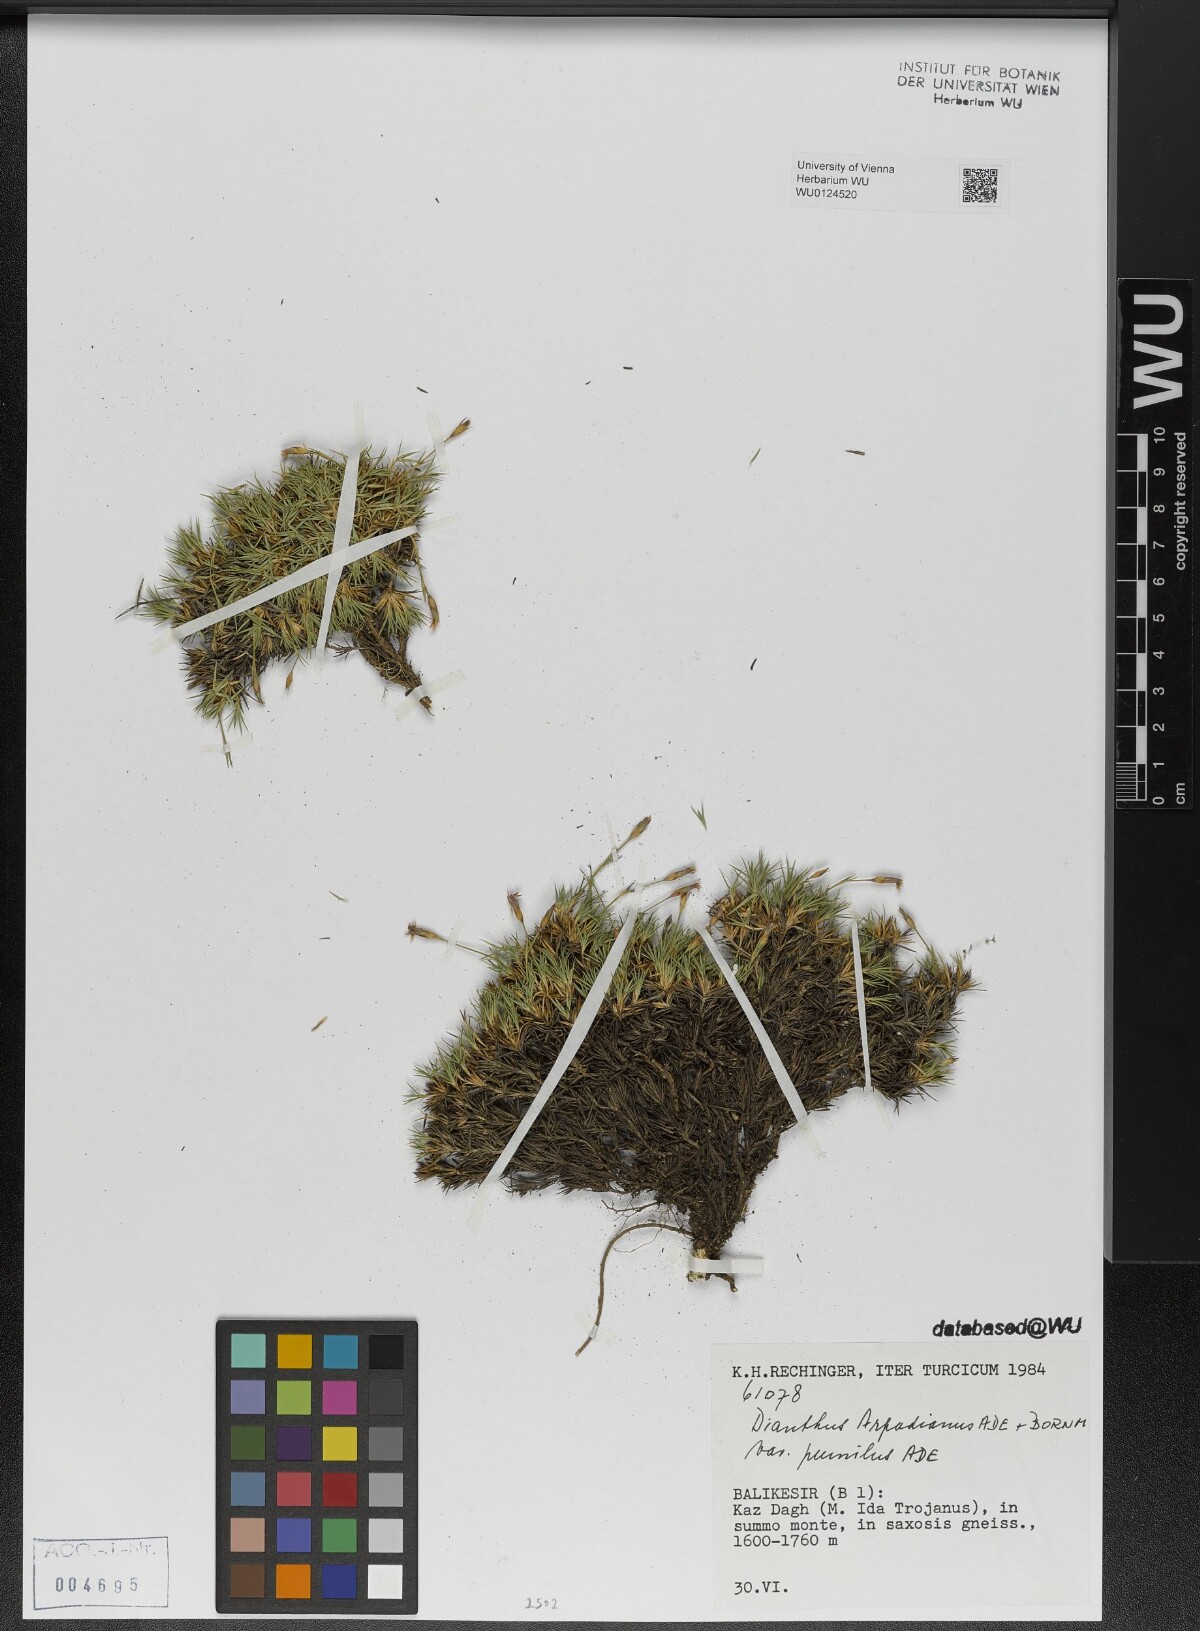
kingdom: Plantae
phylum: Tracheophyta
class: Magnoliopsida
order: Caryophyllales
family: Caryophyllaceae
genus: Dianthus
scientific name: Dianthus arpadianus
